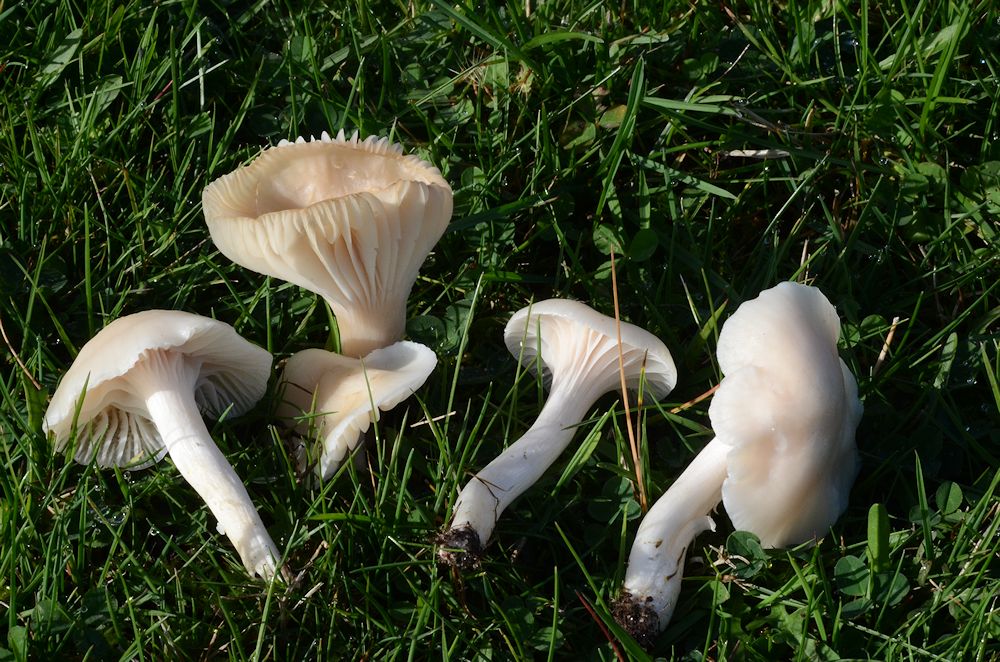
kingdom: Fungi
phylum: Basidiomycota
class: Agaricomycetes
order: Agaricales
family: Hygrophoraceae
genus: Cuphophyllus
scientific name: Cuphophyllus virgineus
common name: snehvid vokshat
